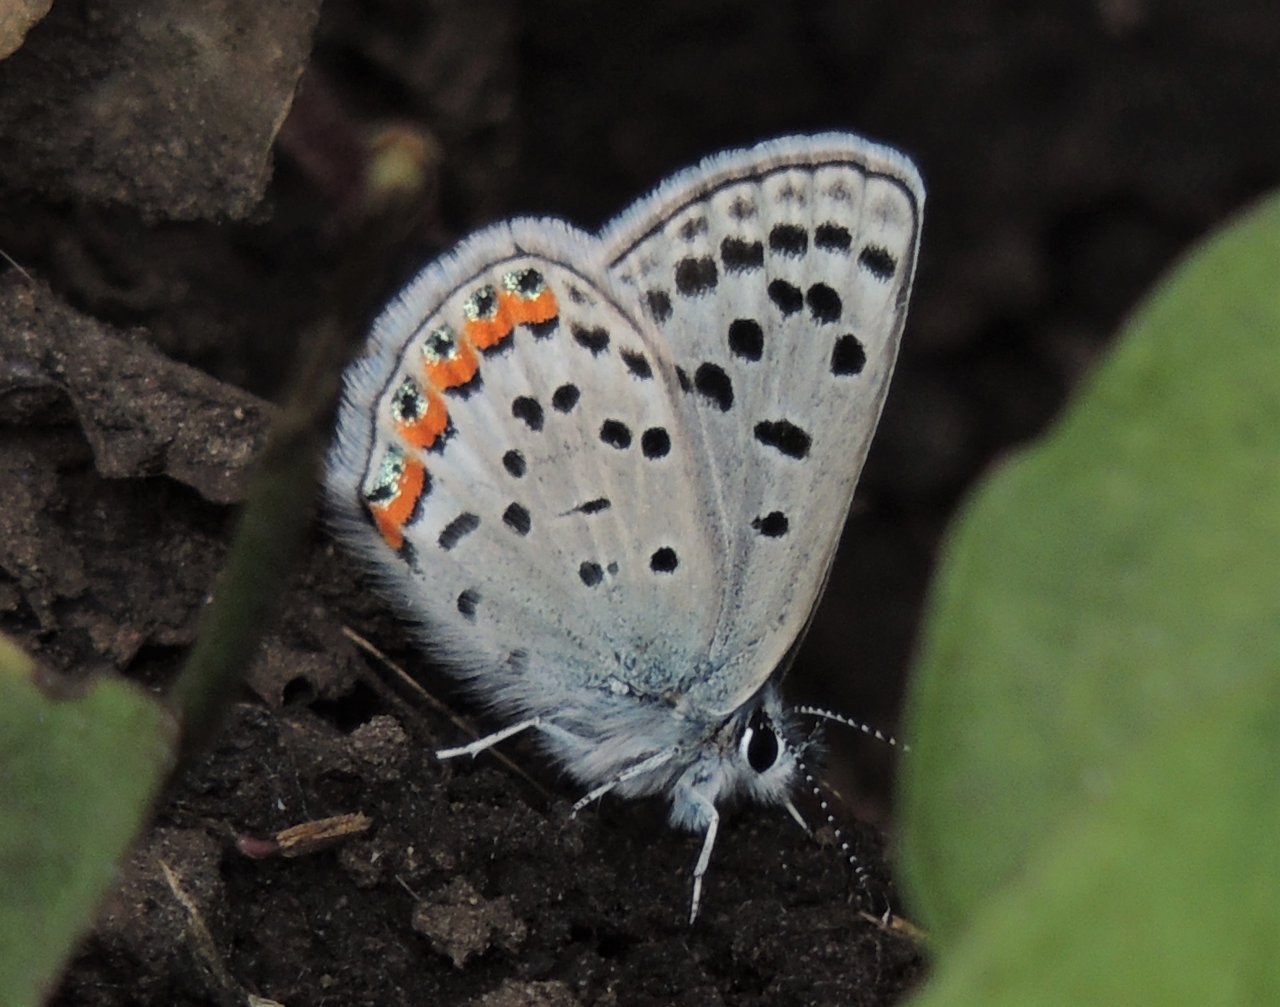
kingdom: Animalia
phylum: Arthropoda
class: Insecta
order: Lepidoptera
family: Lycaenidae
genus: Plebejus
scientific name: Plebejus lupini
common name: Lupine Blue
